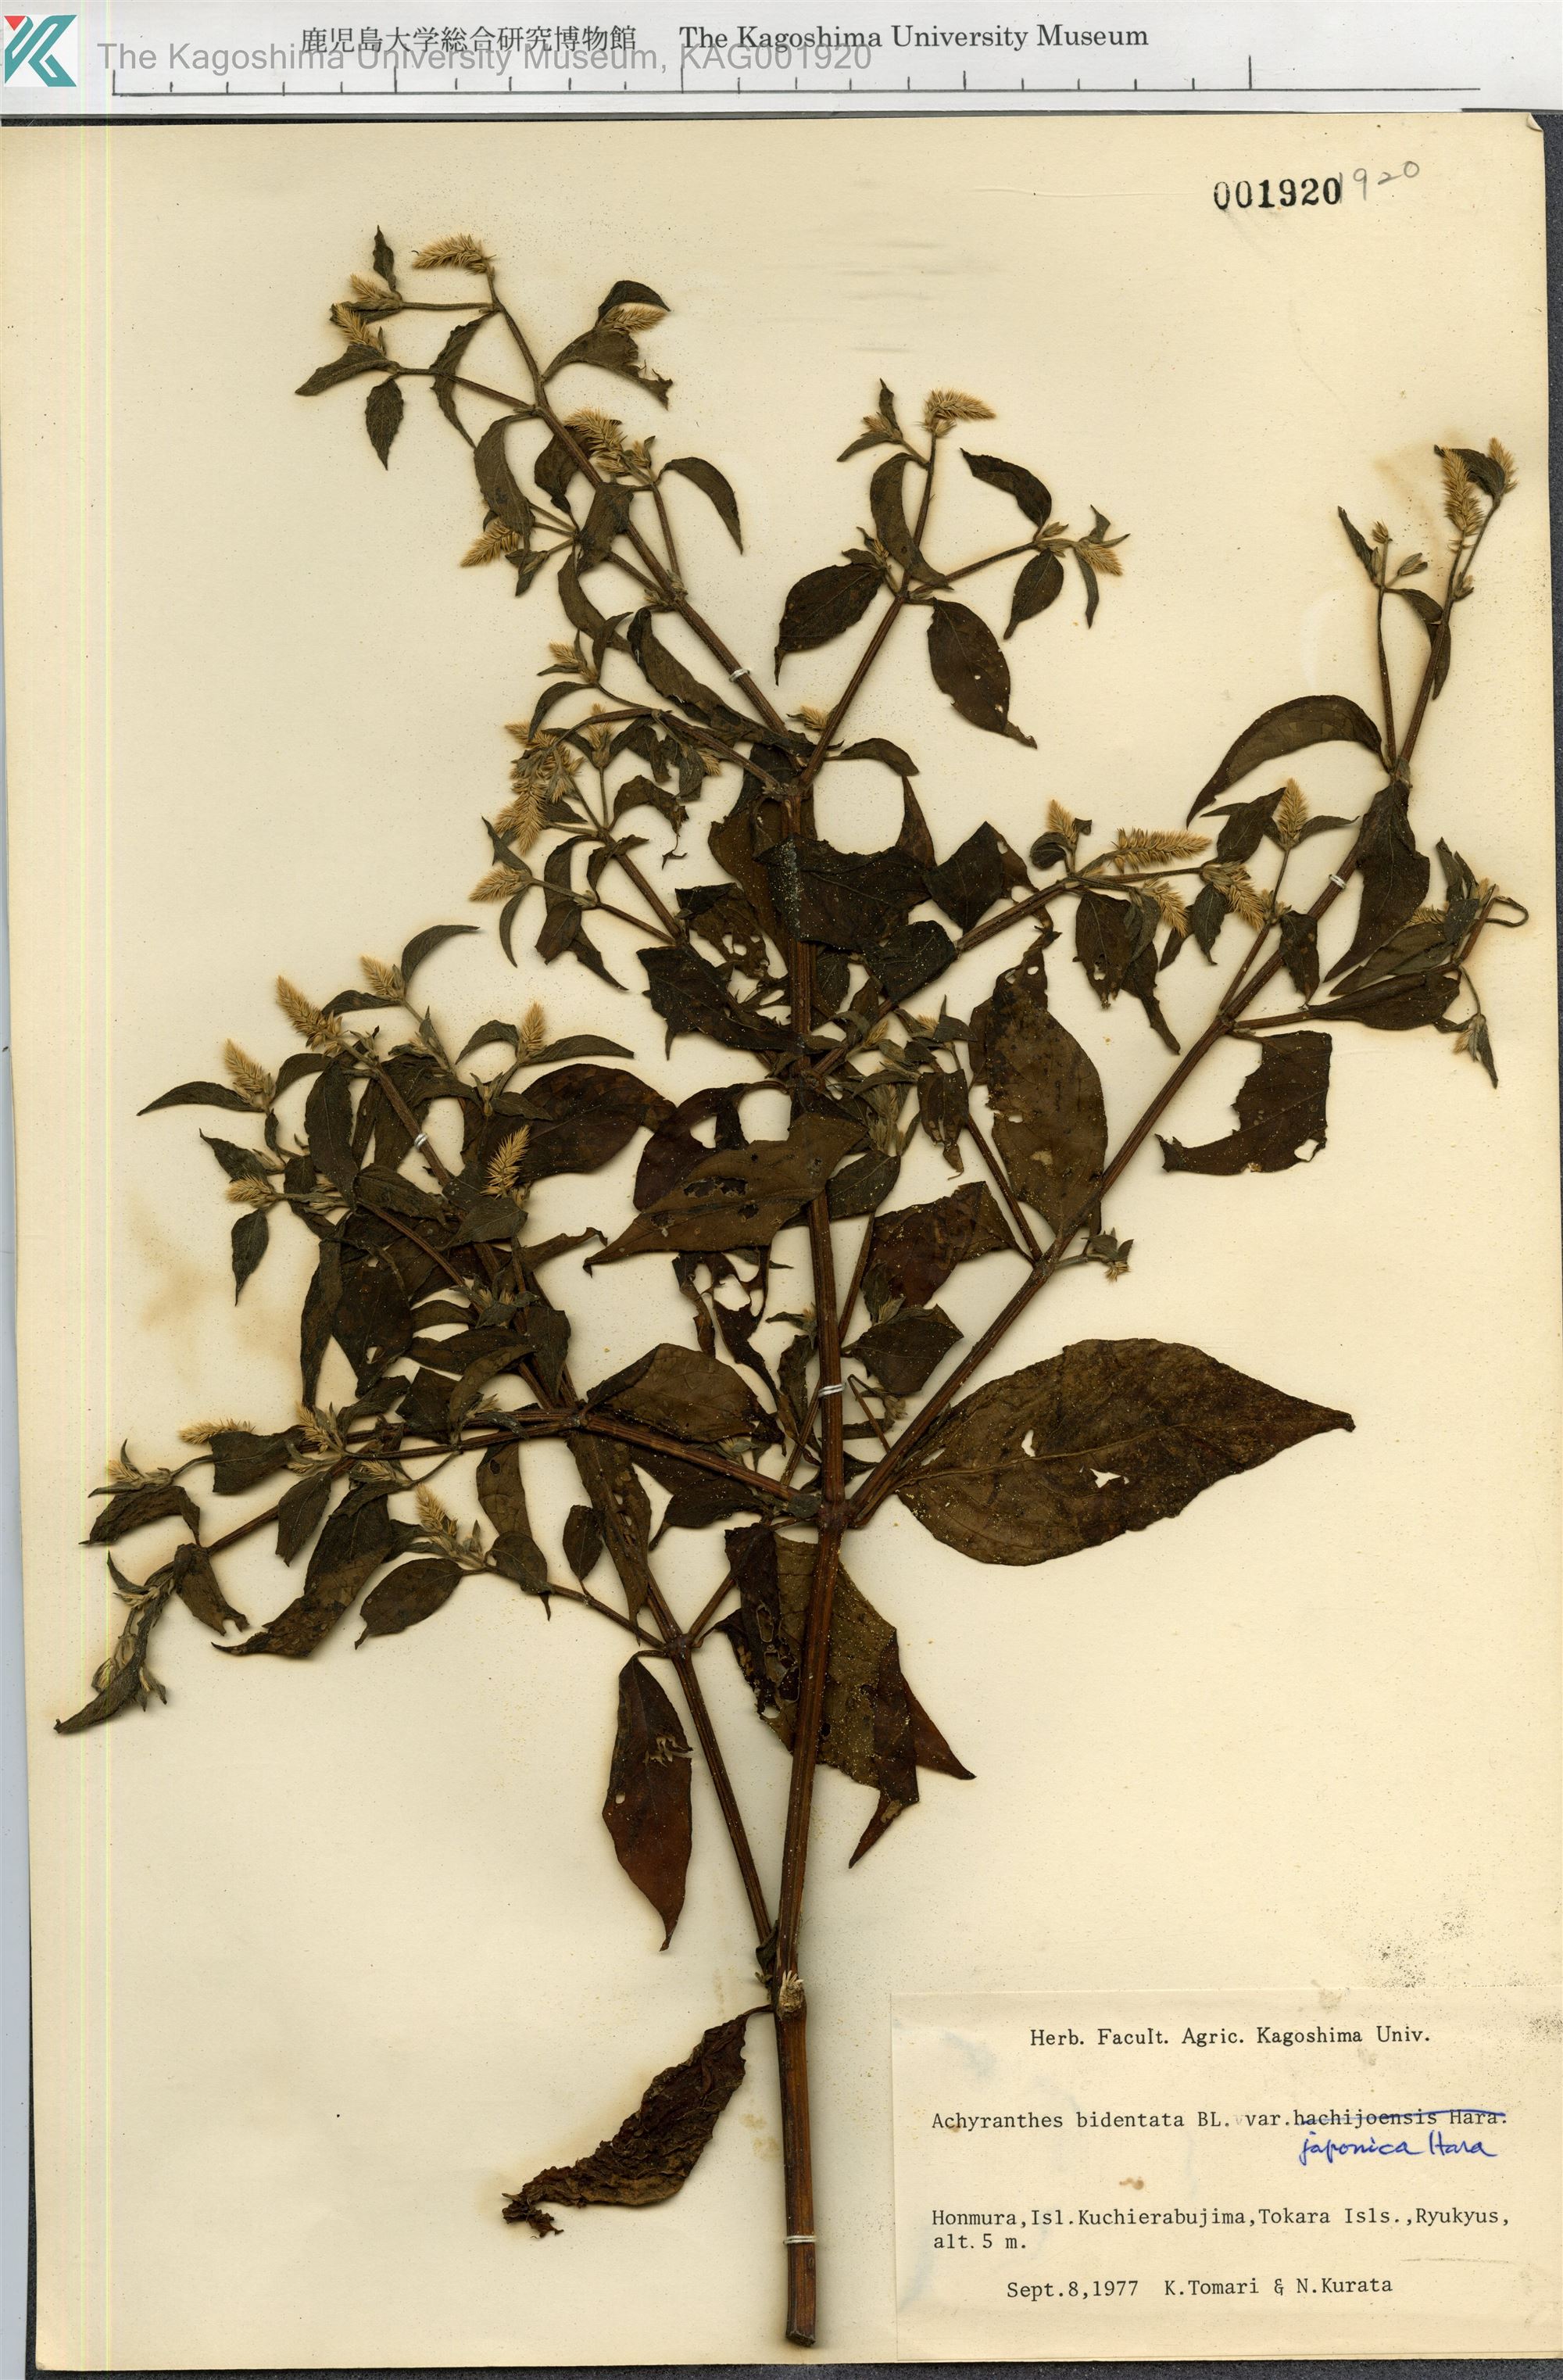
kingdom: Plantae
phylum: Tracheophyta
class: Magnoliopsida
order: Caryophyllales
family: Amaranthaceae
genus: Achyranthes
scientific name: Achyranthes bidentata
